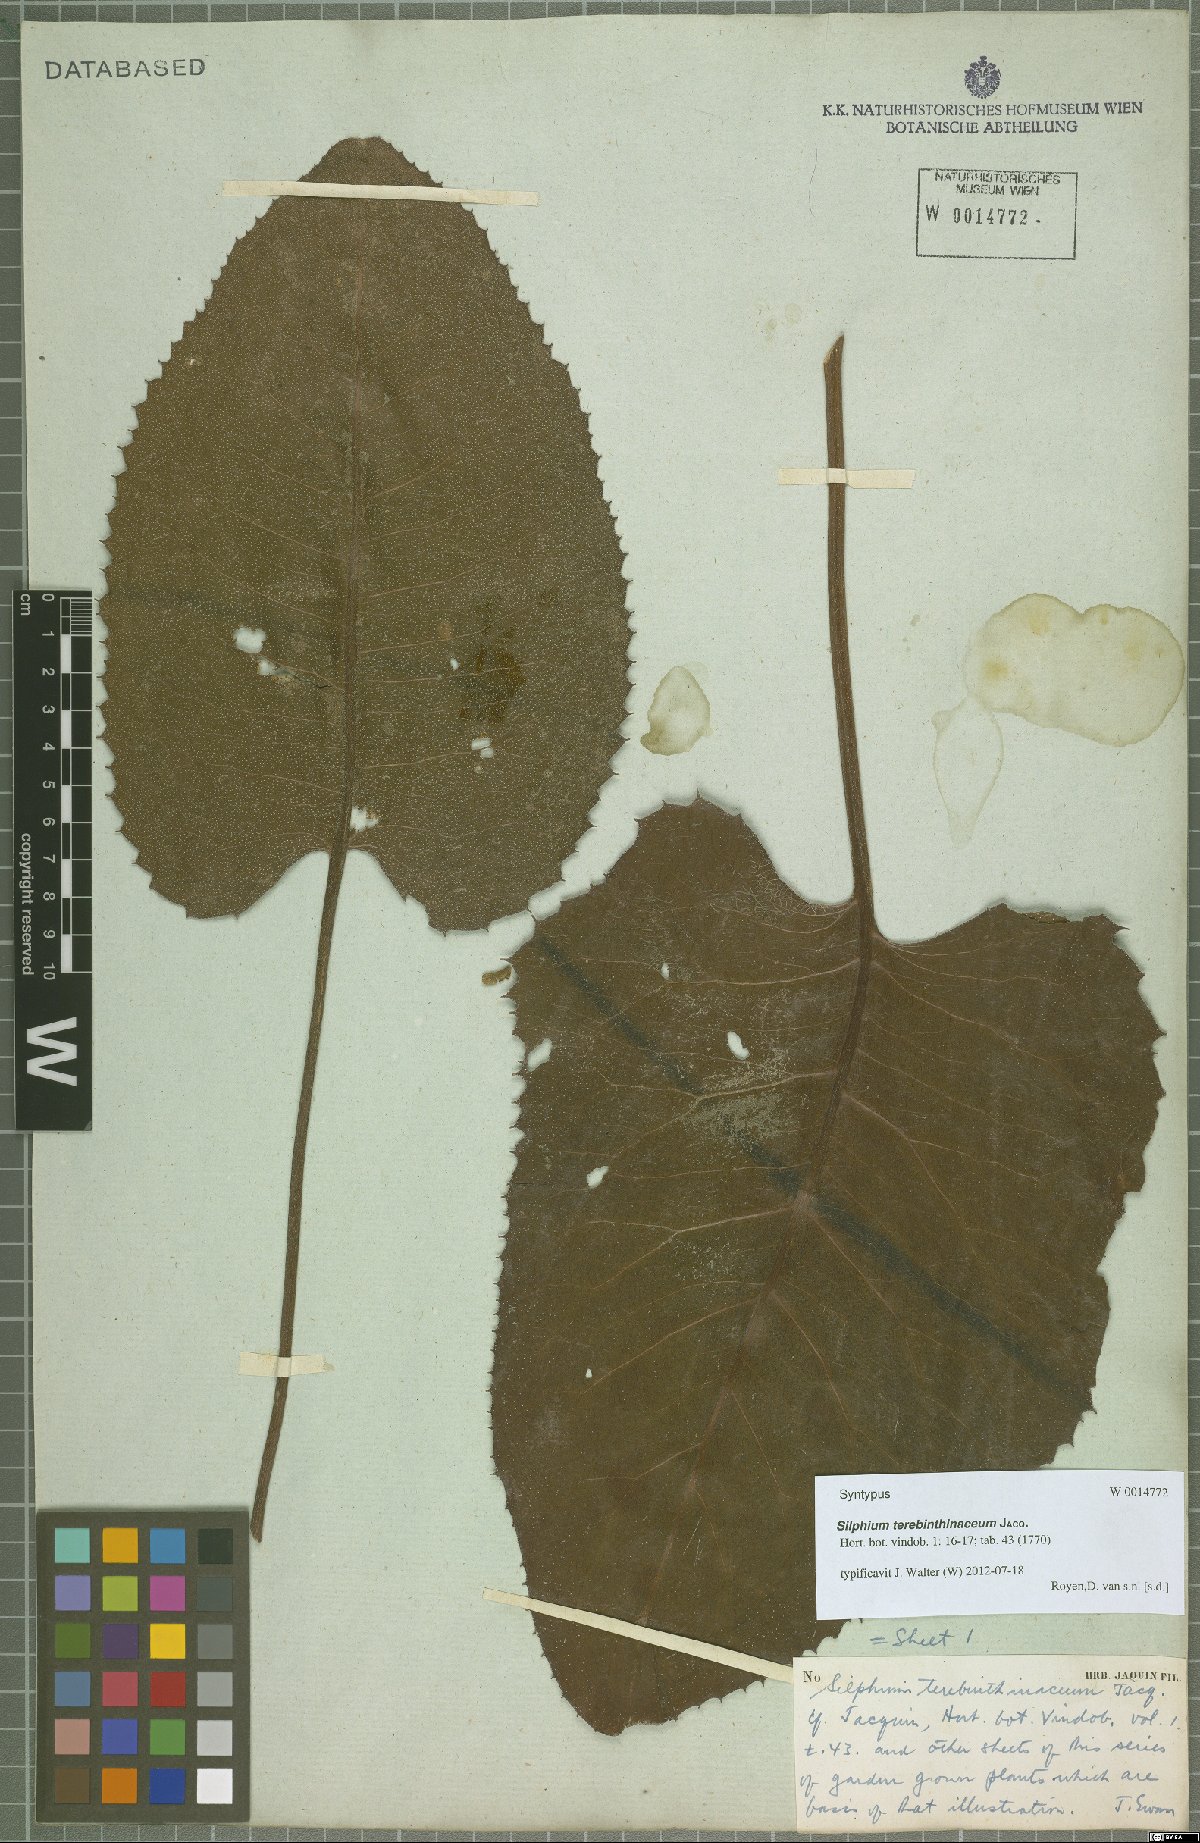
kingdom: Plantae
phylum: Tracheophyta
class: Magnoliopsida
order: Asterales
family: Asteraceae
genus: Silphium
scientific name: Silphium terebinthinaceum
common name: Basal-leaf rosinweed
